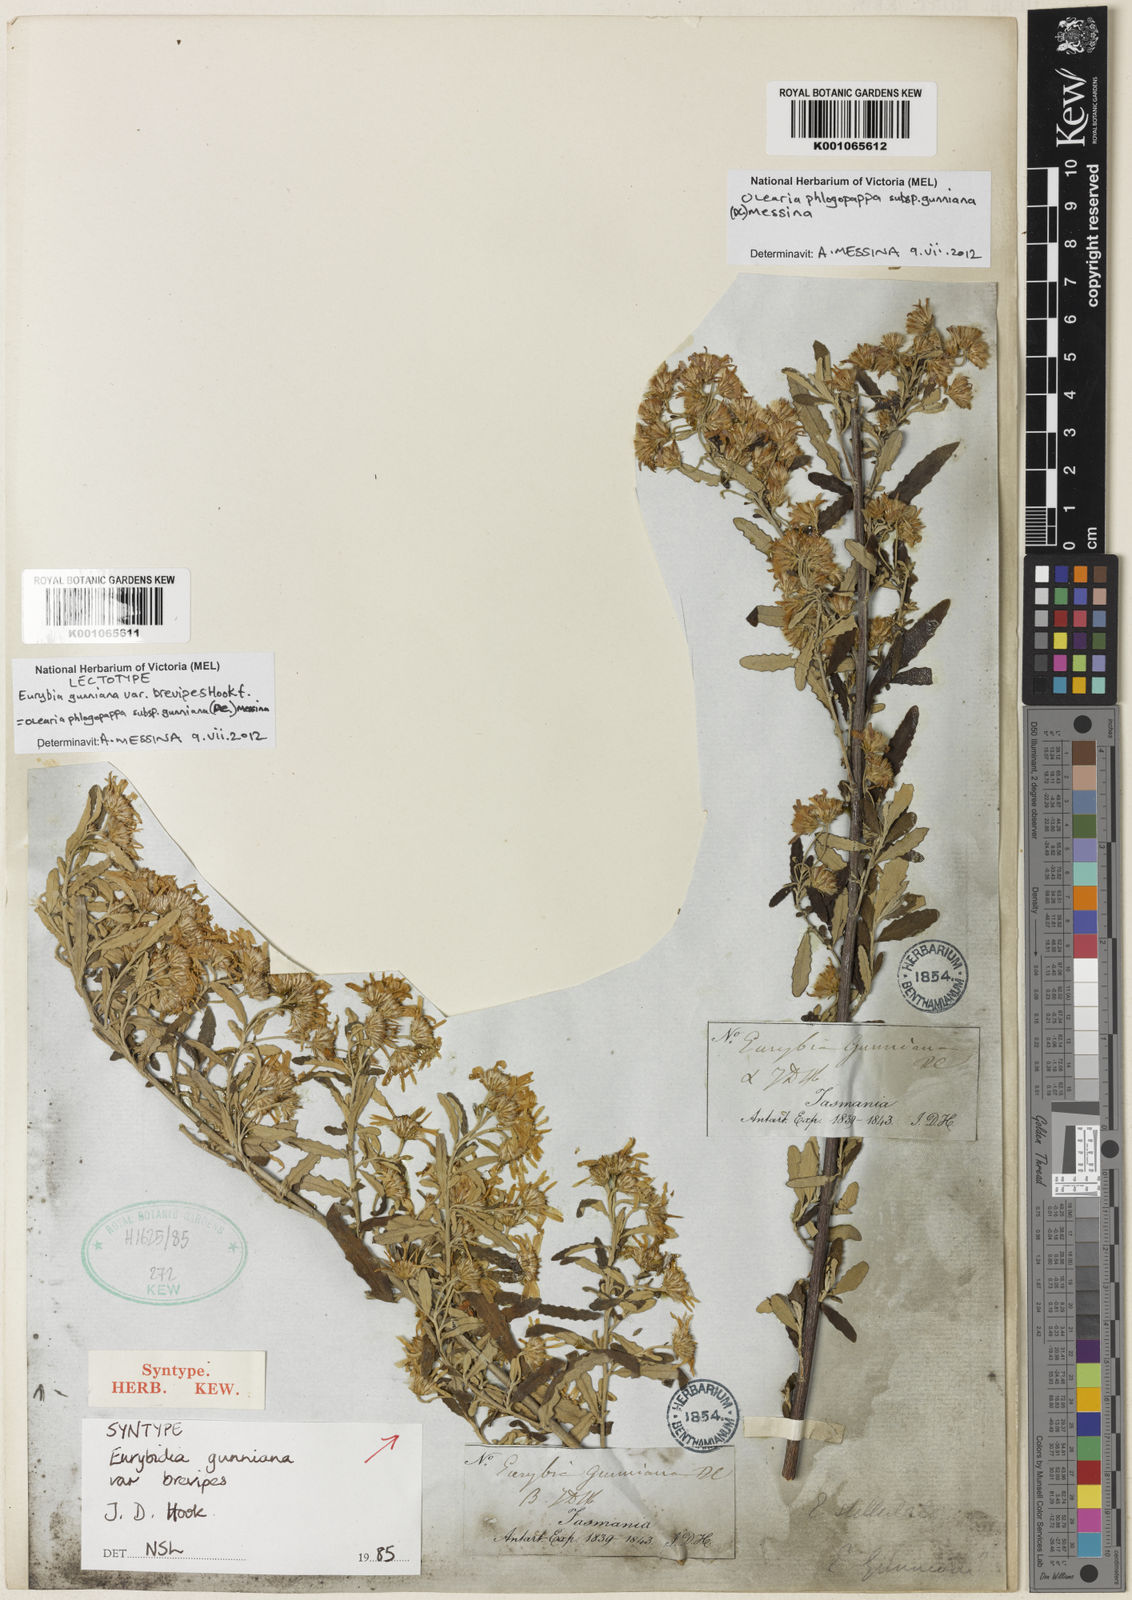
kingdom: Plantae
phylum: Tracheophyta
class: Magnoliopsida
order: Asterales
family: Asteraceae
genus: Olearia
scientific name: Olearia phlogopappa
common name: Alpine daisybush
